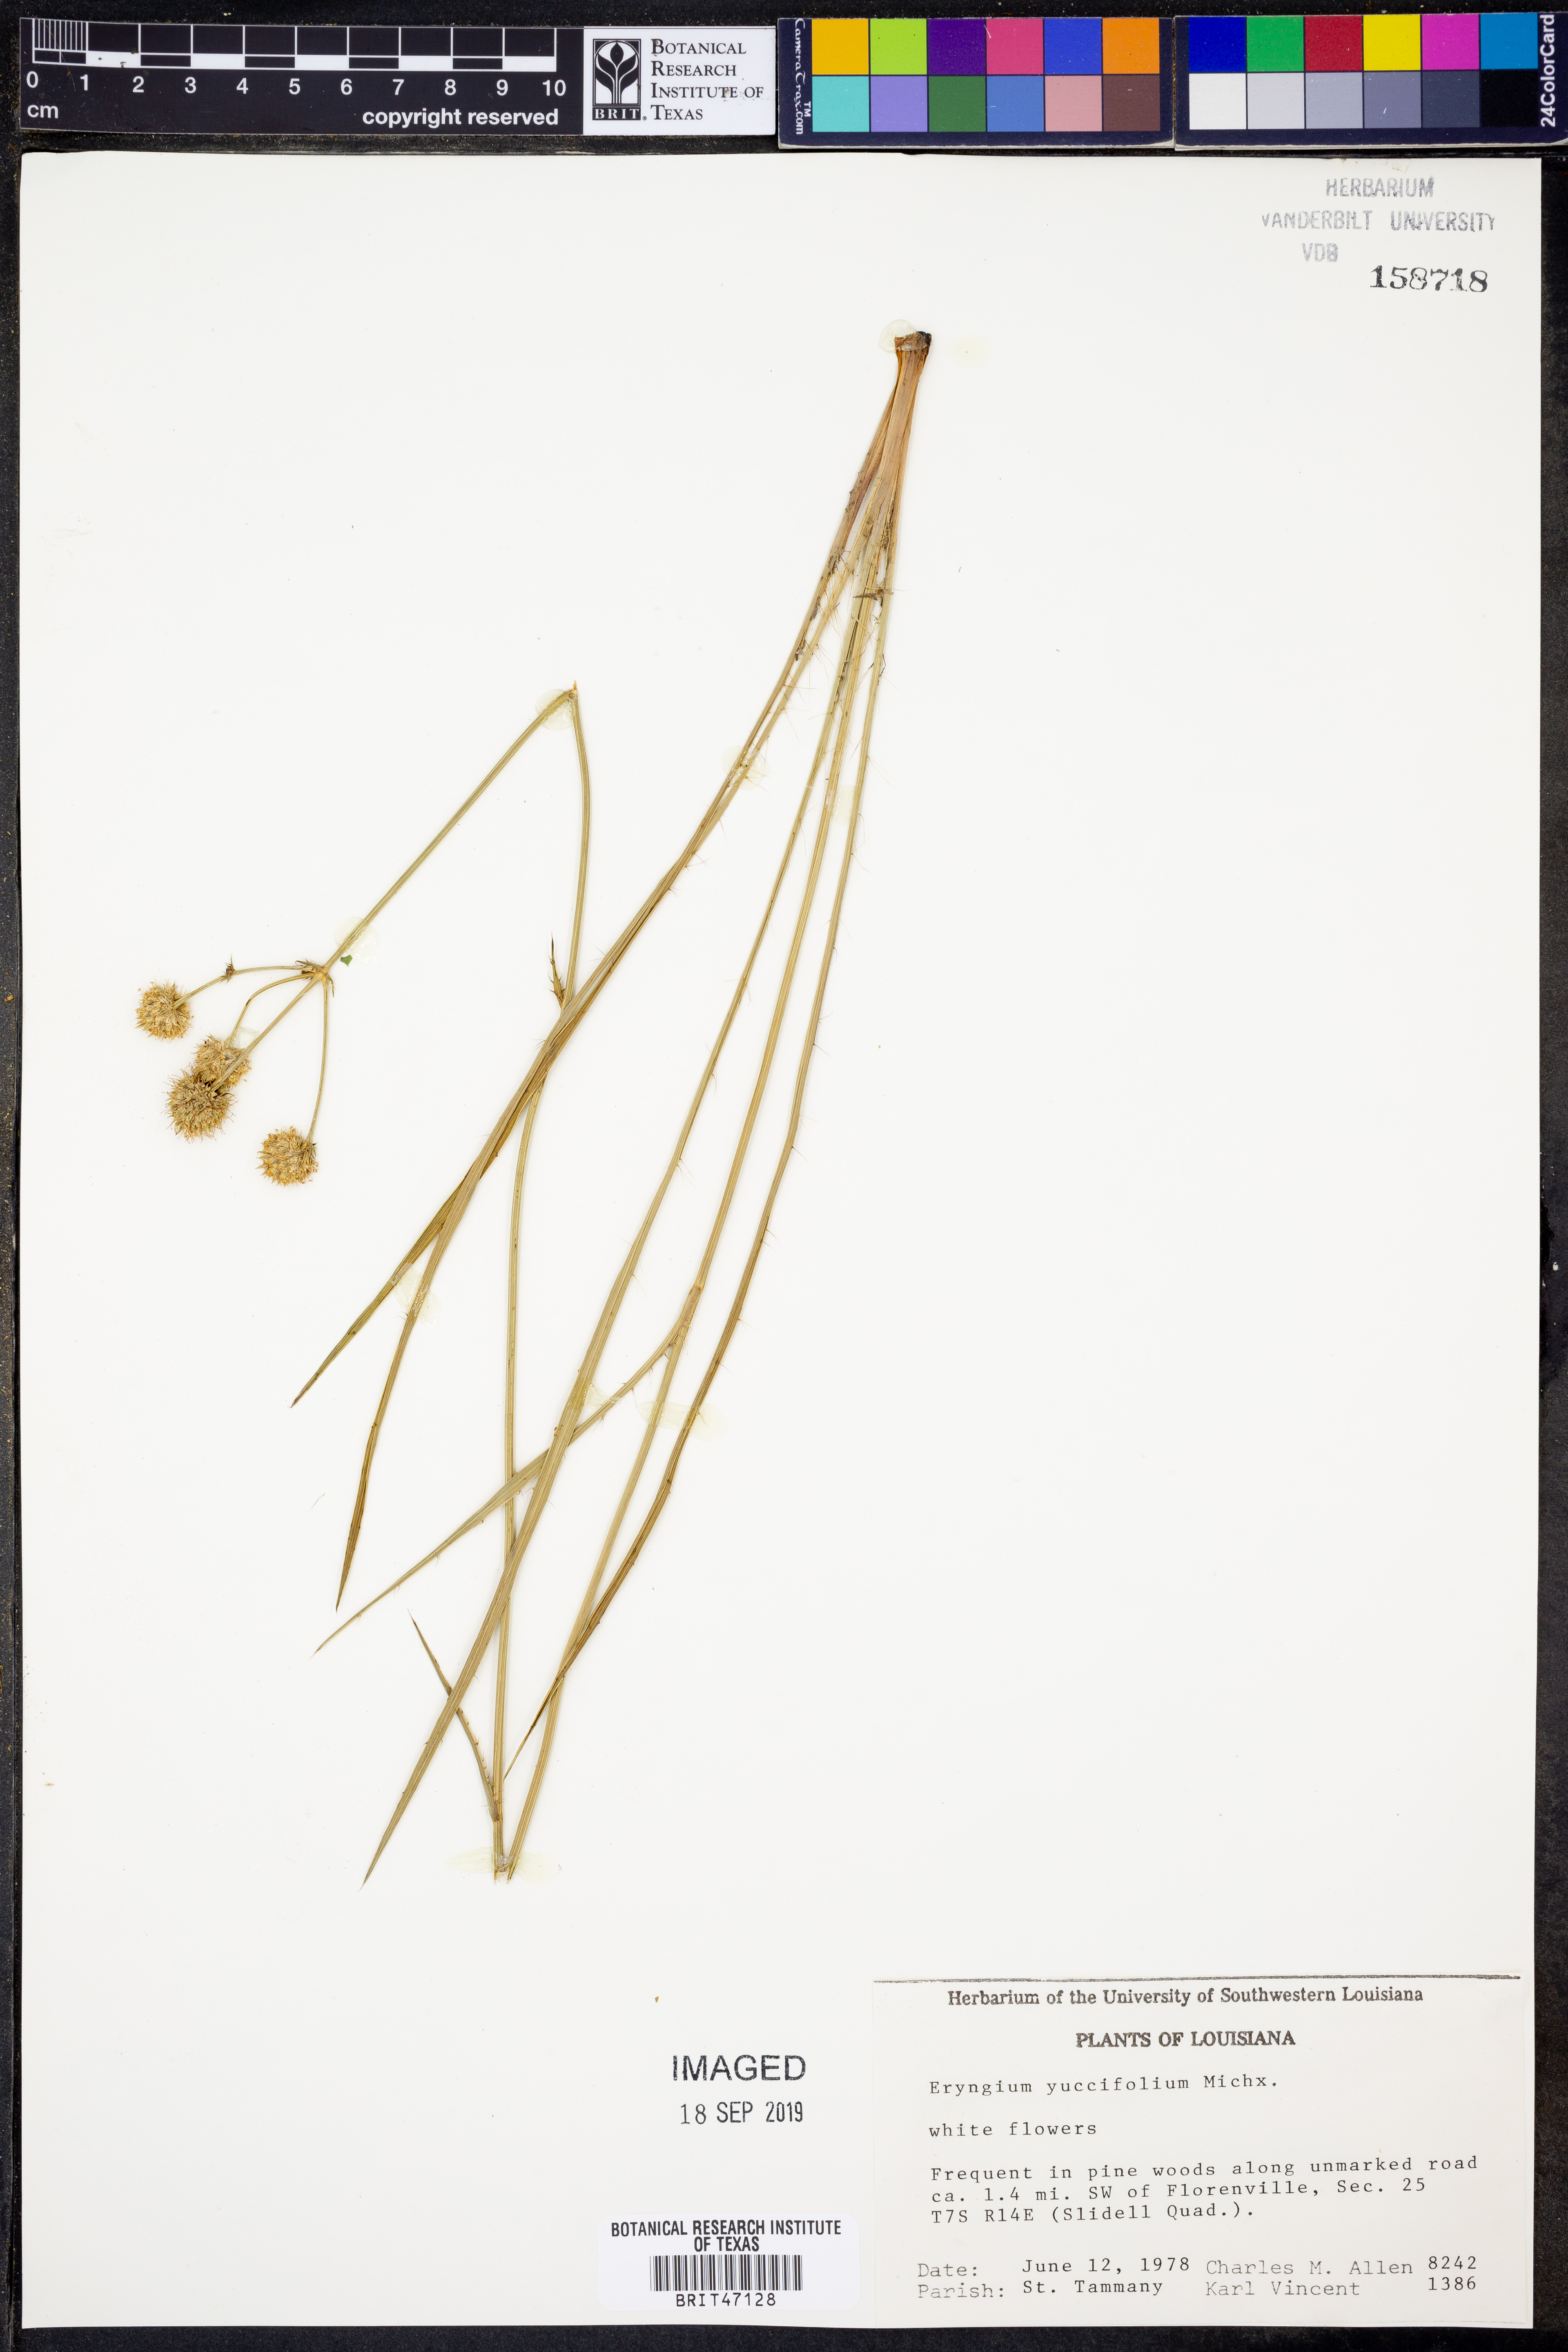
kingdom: Plantae
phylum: Tracheophyta
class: Magnoliopsida
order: Apiales
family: Apiaceae
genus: Eryngium
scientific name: Eryngium yuccifolium
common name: Button eryngo
